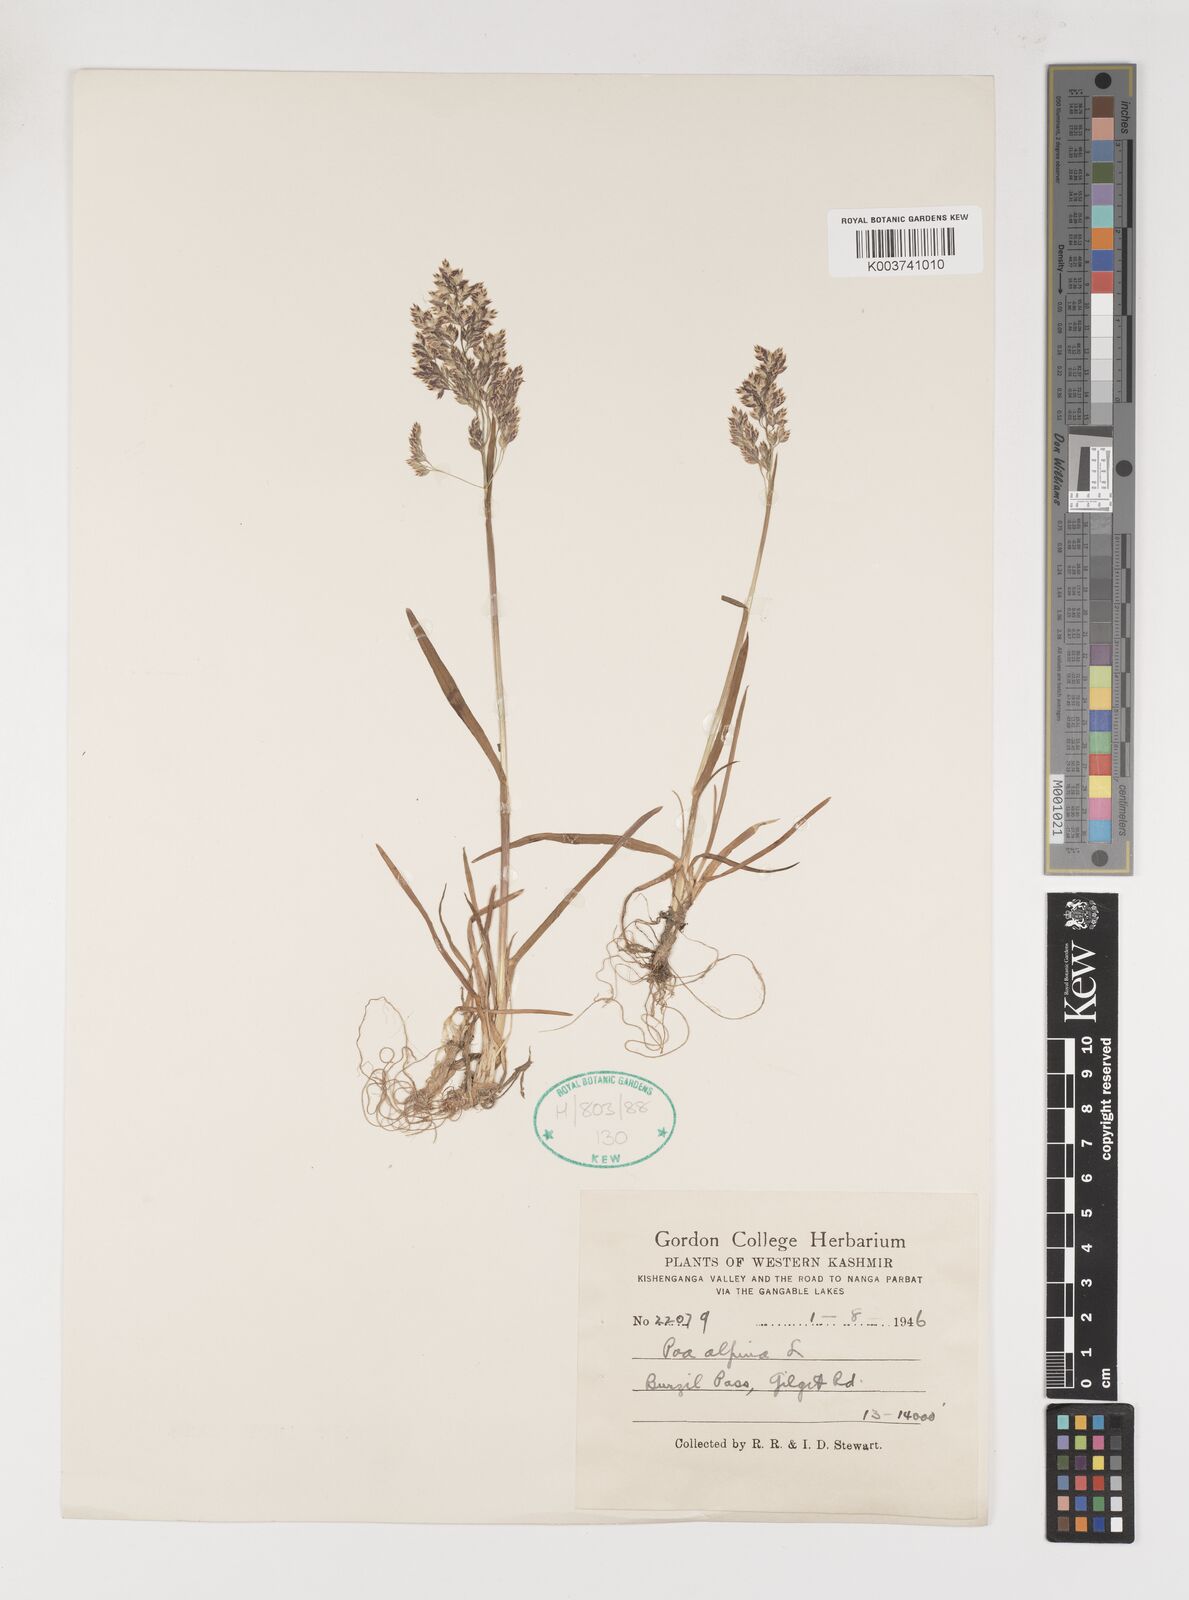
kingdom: Plantae
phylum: Tracheophyta
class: Liliopsida
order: Poales
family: Poaceae
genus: Poa
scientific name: Poa alpina
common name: Alpine bluegrass
